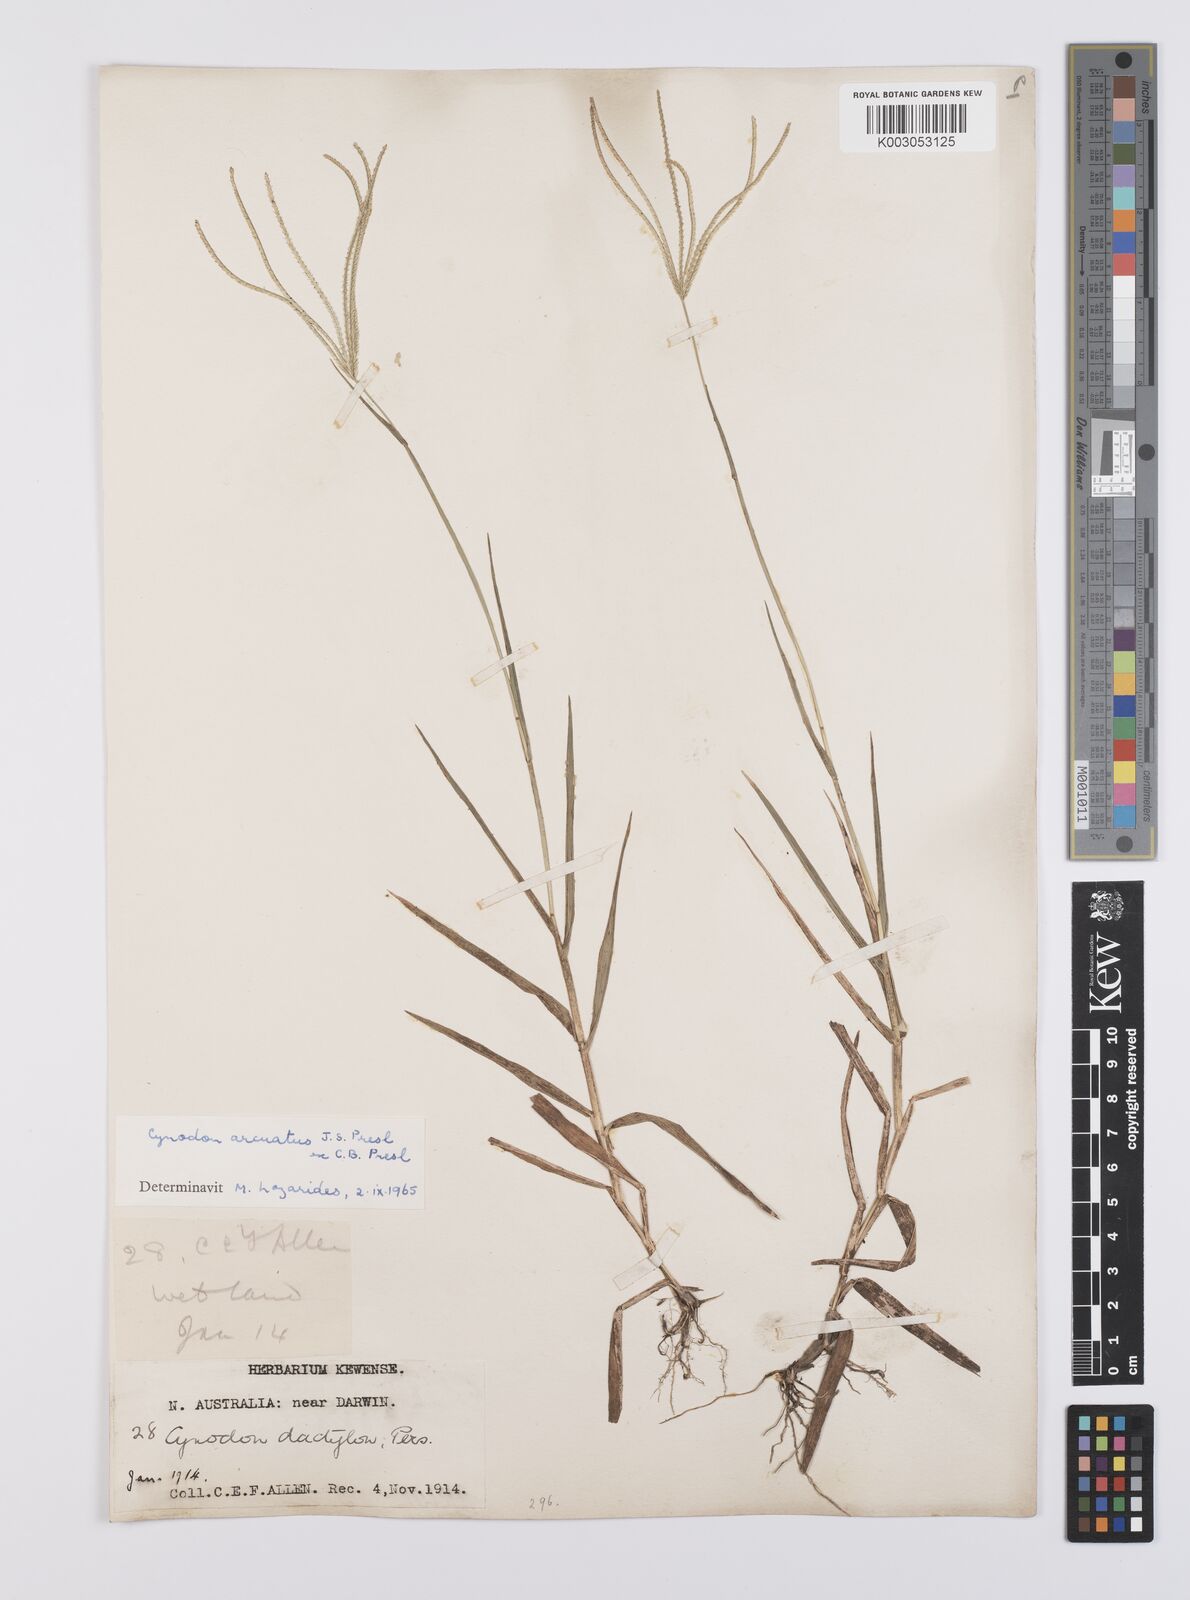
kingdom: Plantae
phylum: Tracheophyta
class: Liliopsida
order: Poales
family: Poaceae
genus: Cynodon
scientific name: Cynodon radiatus
